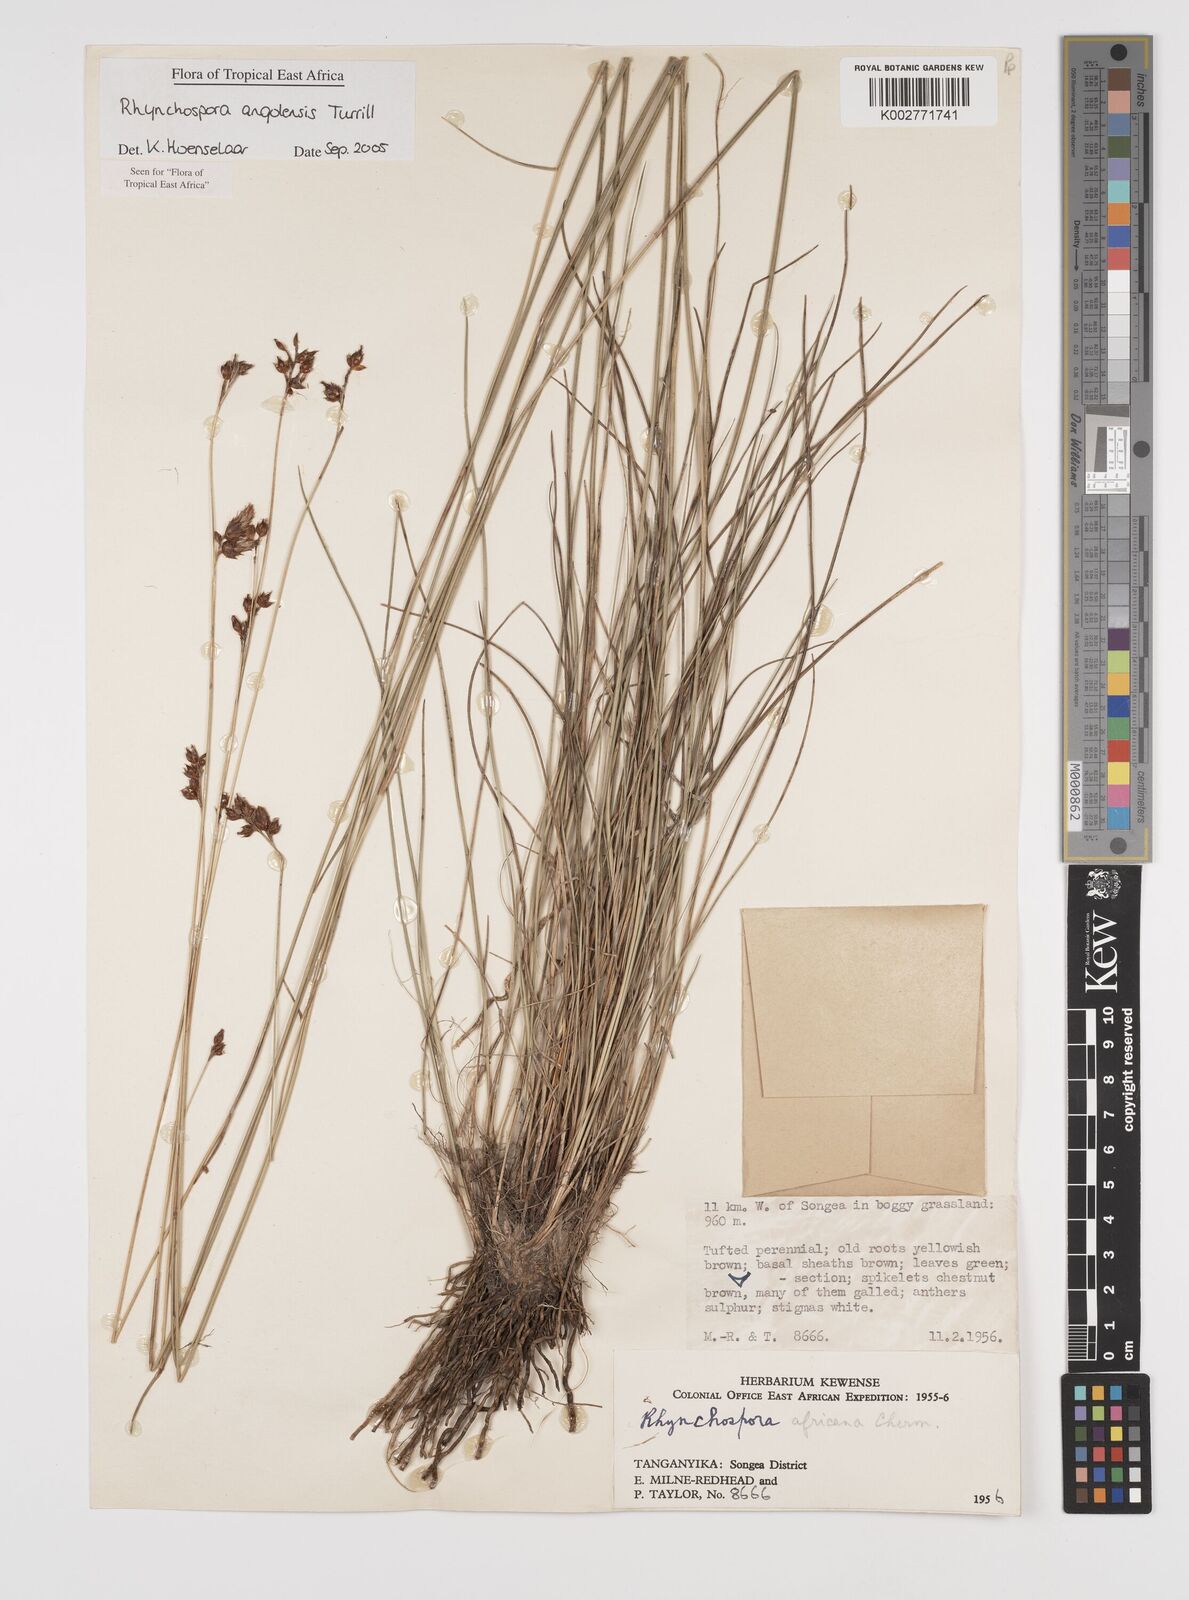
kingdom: Plantae
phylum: Tracheophyta
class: Liliopsida
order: Poales
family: Cyperaceae
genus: Rhynchospora
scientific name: Rhynchospora angolensis
